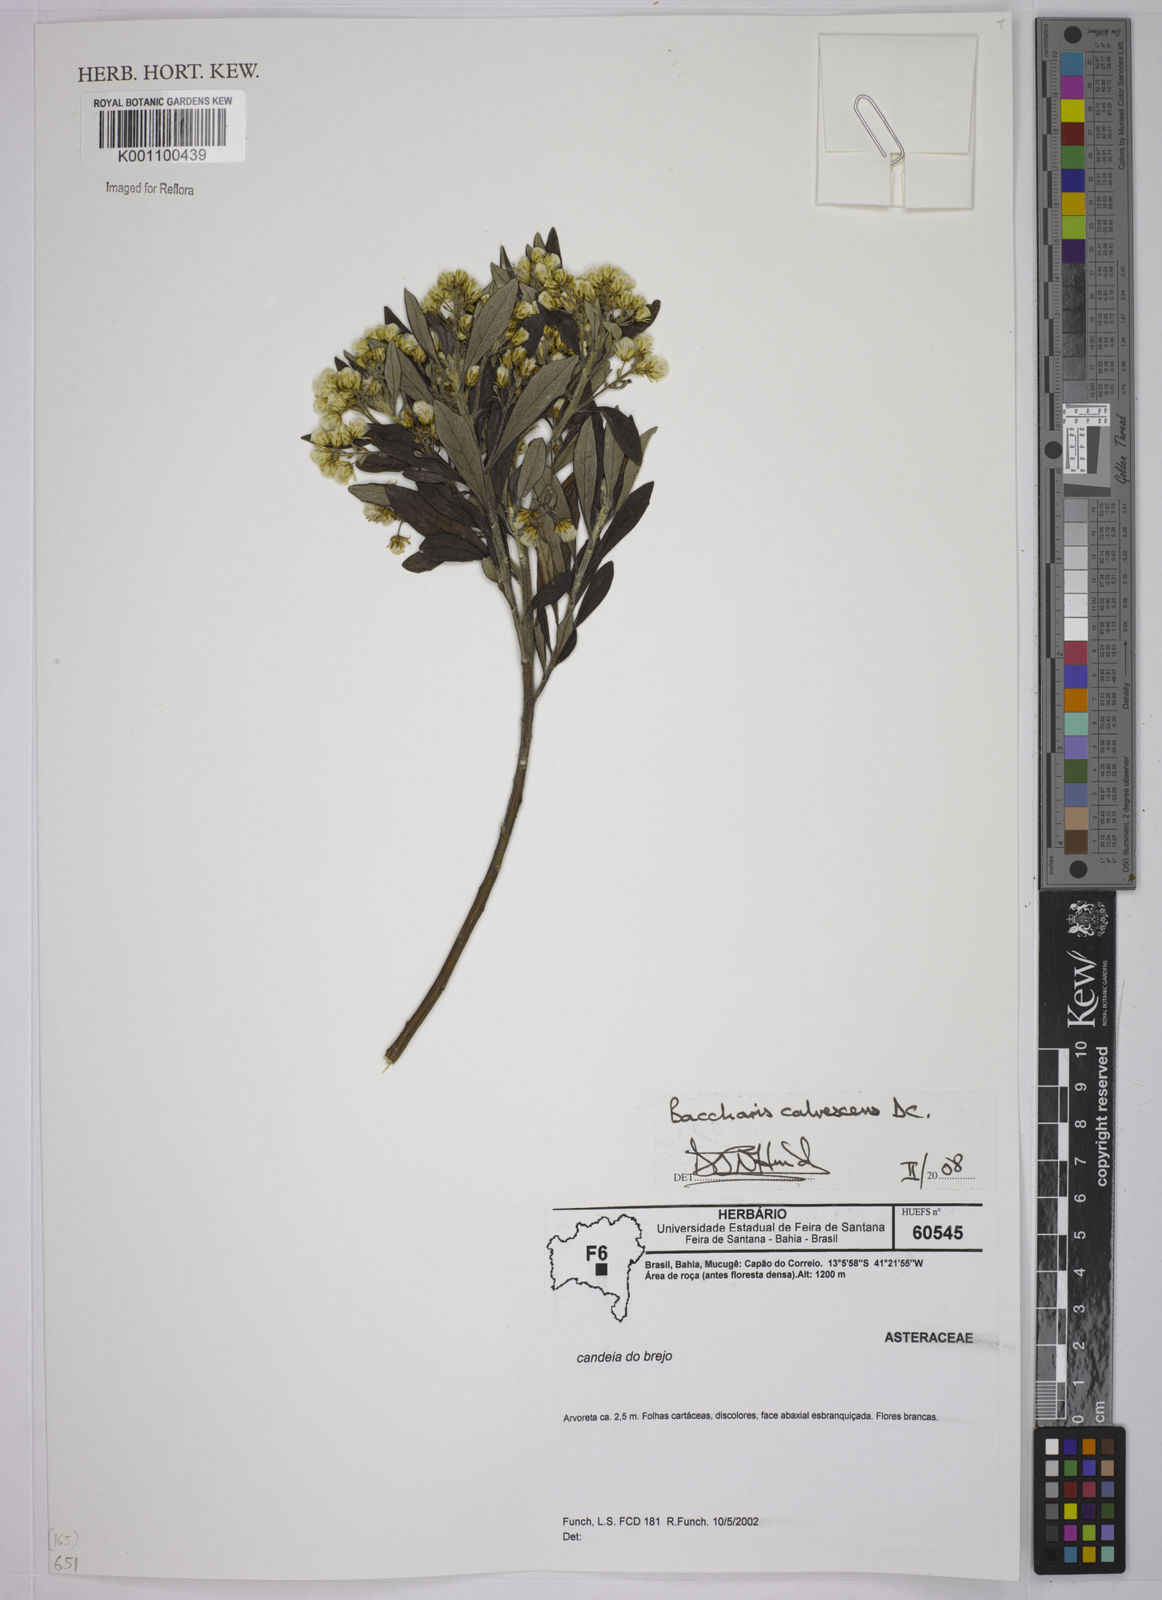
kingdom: Plantae
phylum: Tracheophyta
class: Magnoliopsida
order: Asterales
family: Asteraceae
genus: Baccharis
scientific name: Baccharis calvescens
